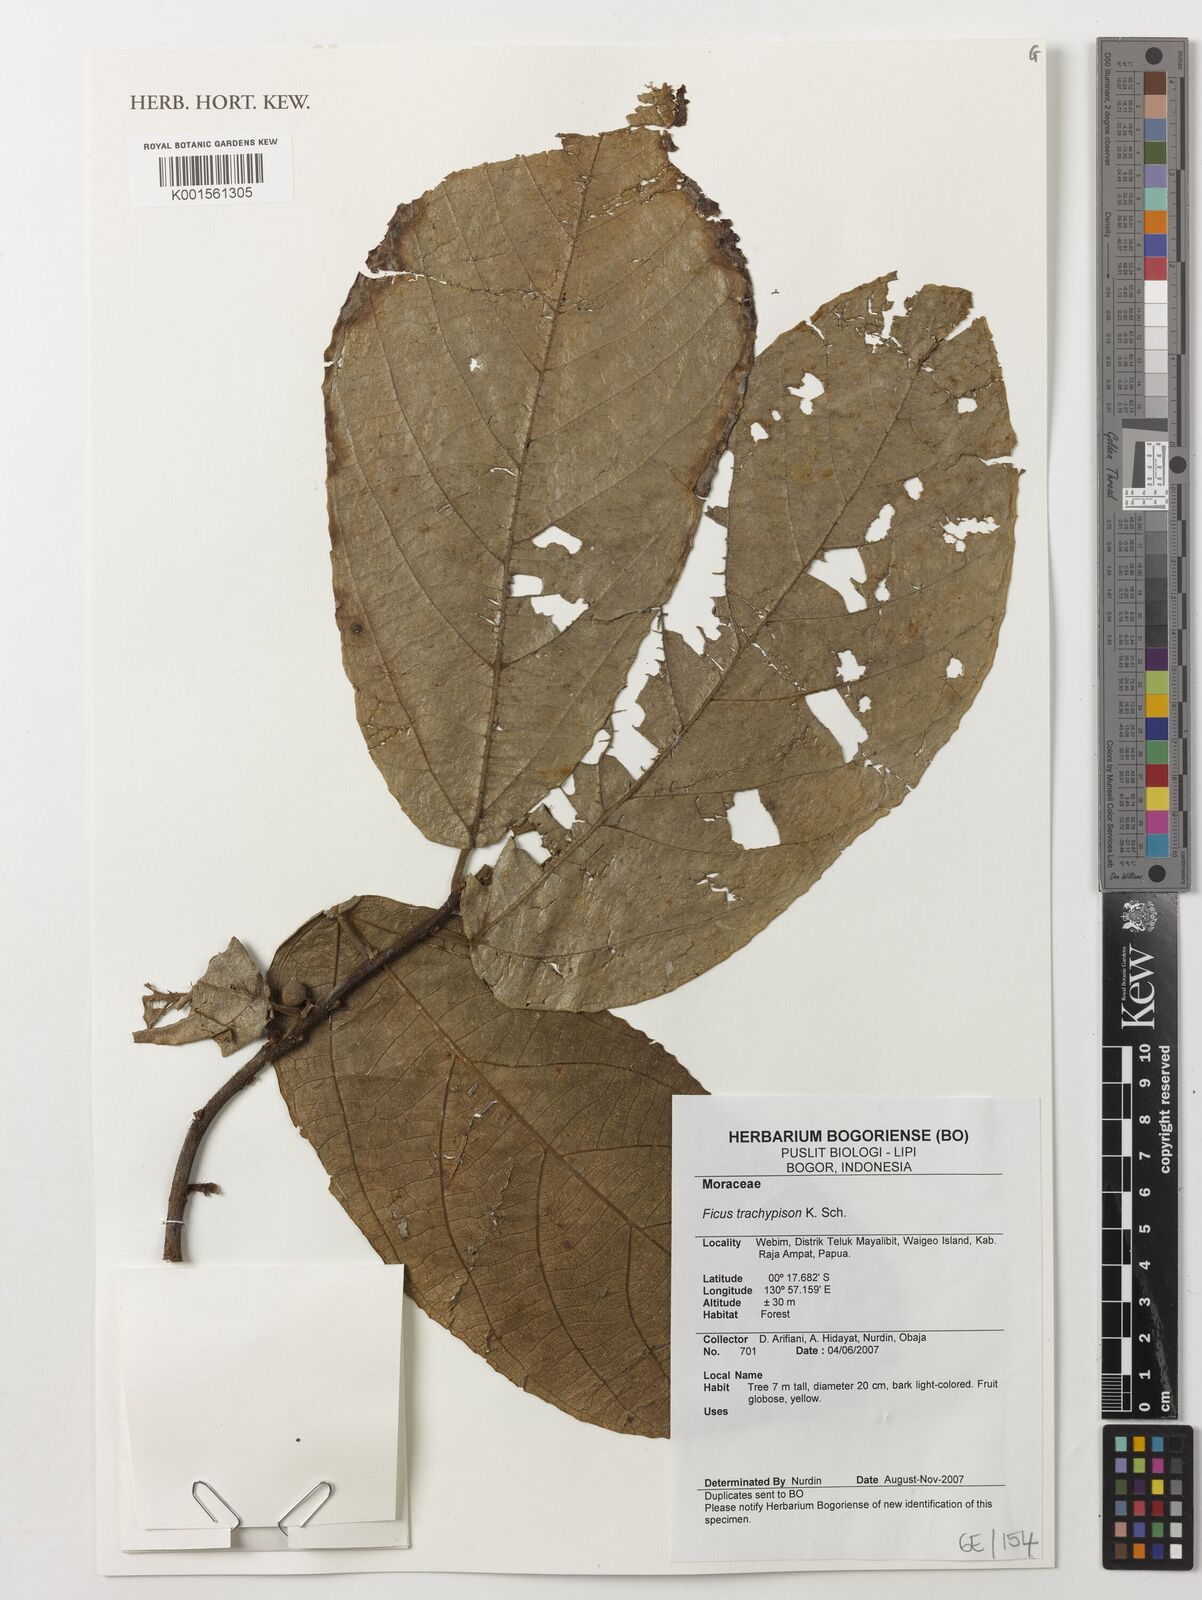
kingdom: Plantae
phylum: Tracheophyta
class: Magnoliopsida
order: Rosales
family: Moraceae
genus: Ficus
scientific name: Ficus trachypison
